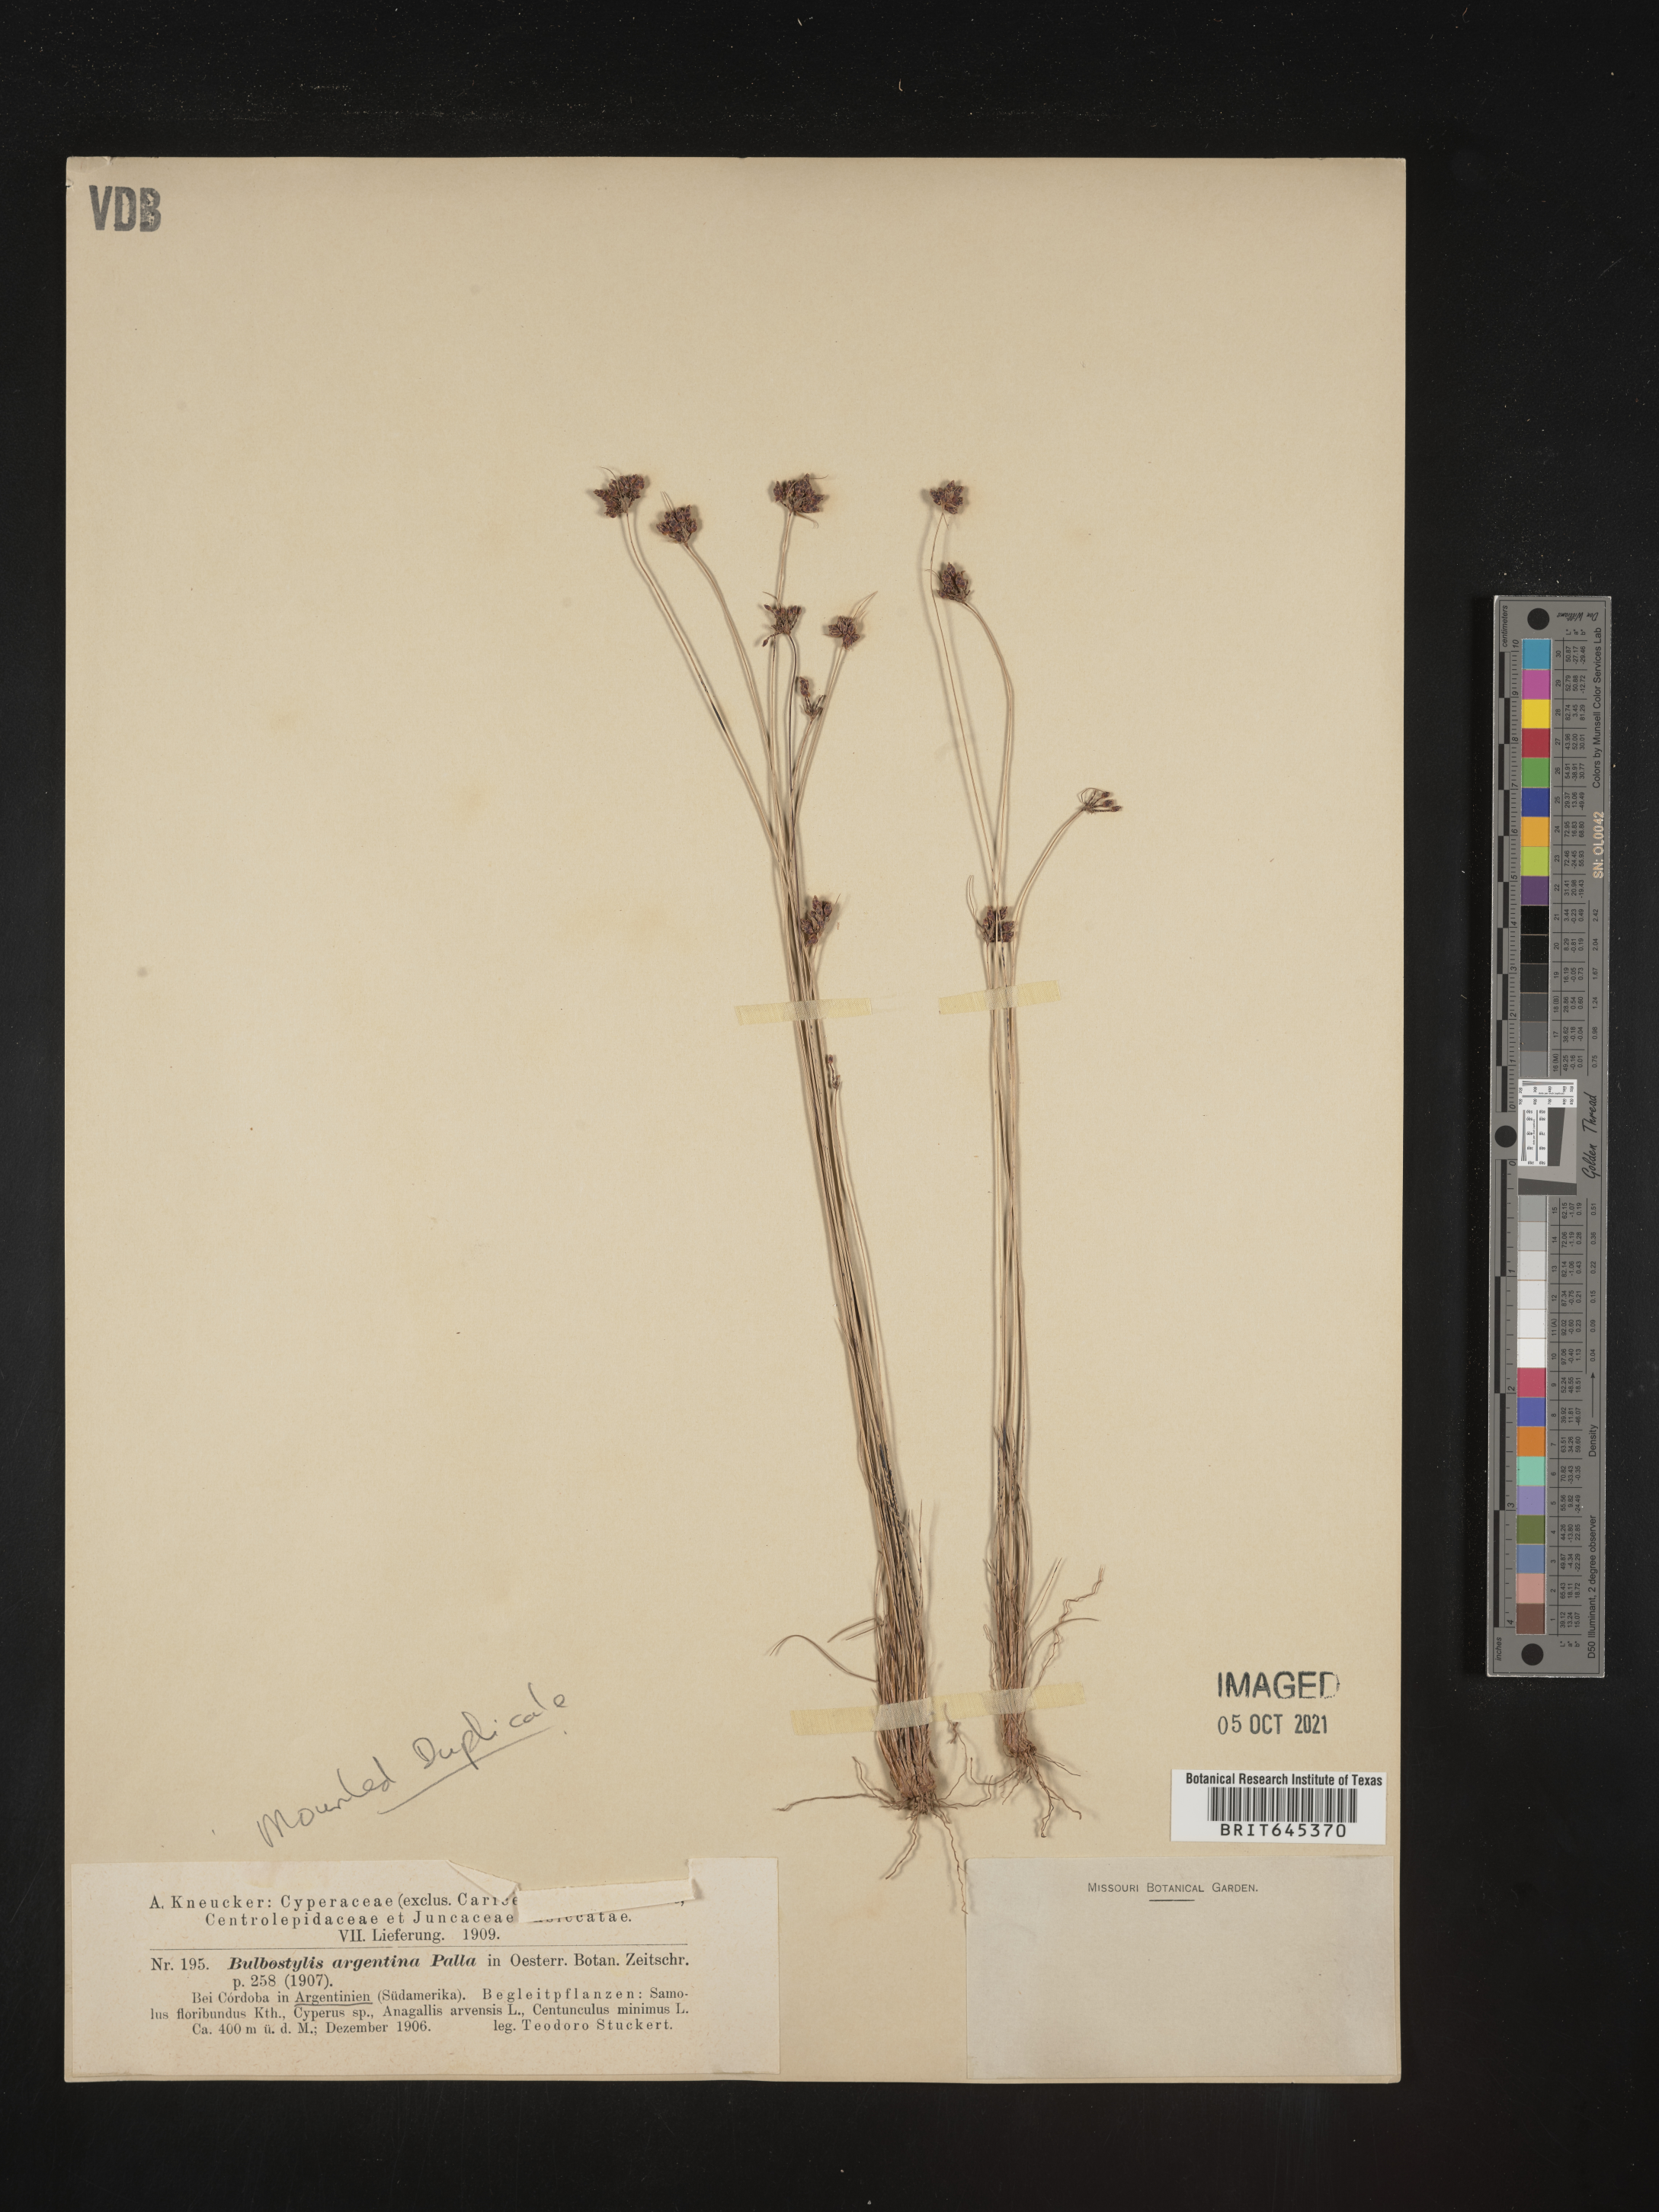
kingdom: Plantae
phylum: Tracheophyta
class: Liliopsida
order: Poales
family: Cyperaceae
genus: Bulbostylis
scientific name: Bulbostylis juncoides
